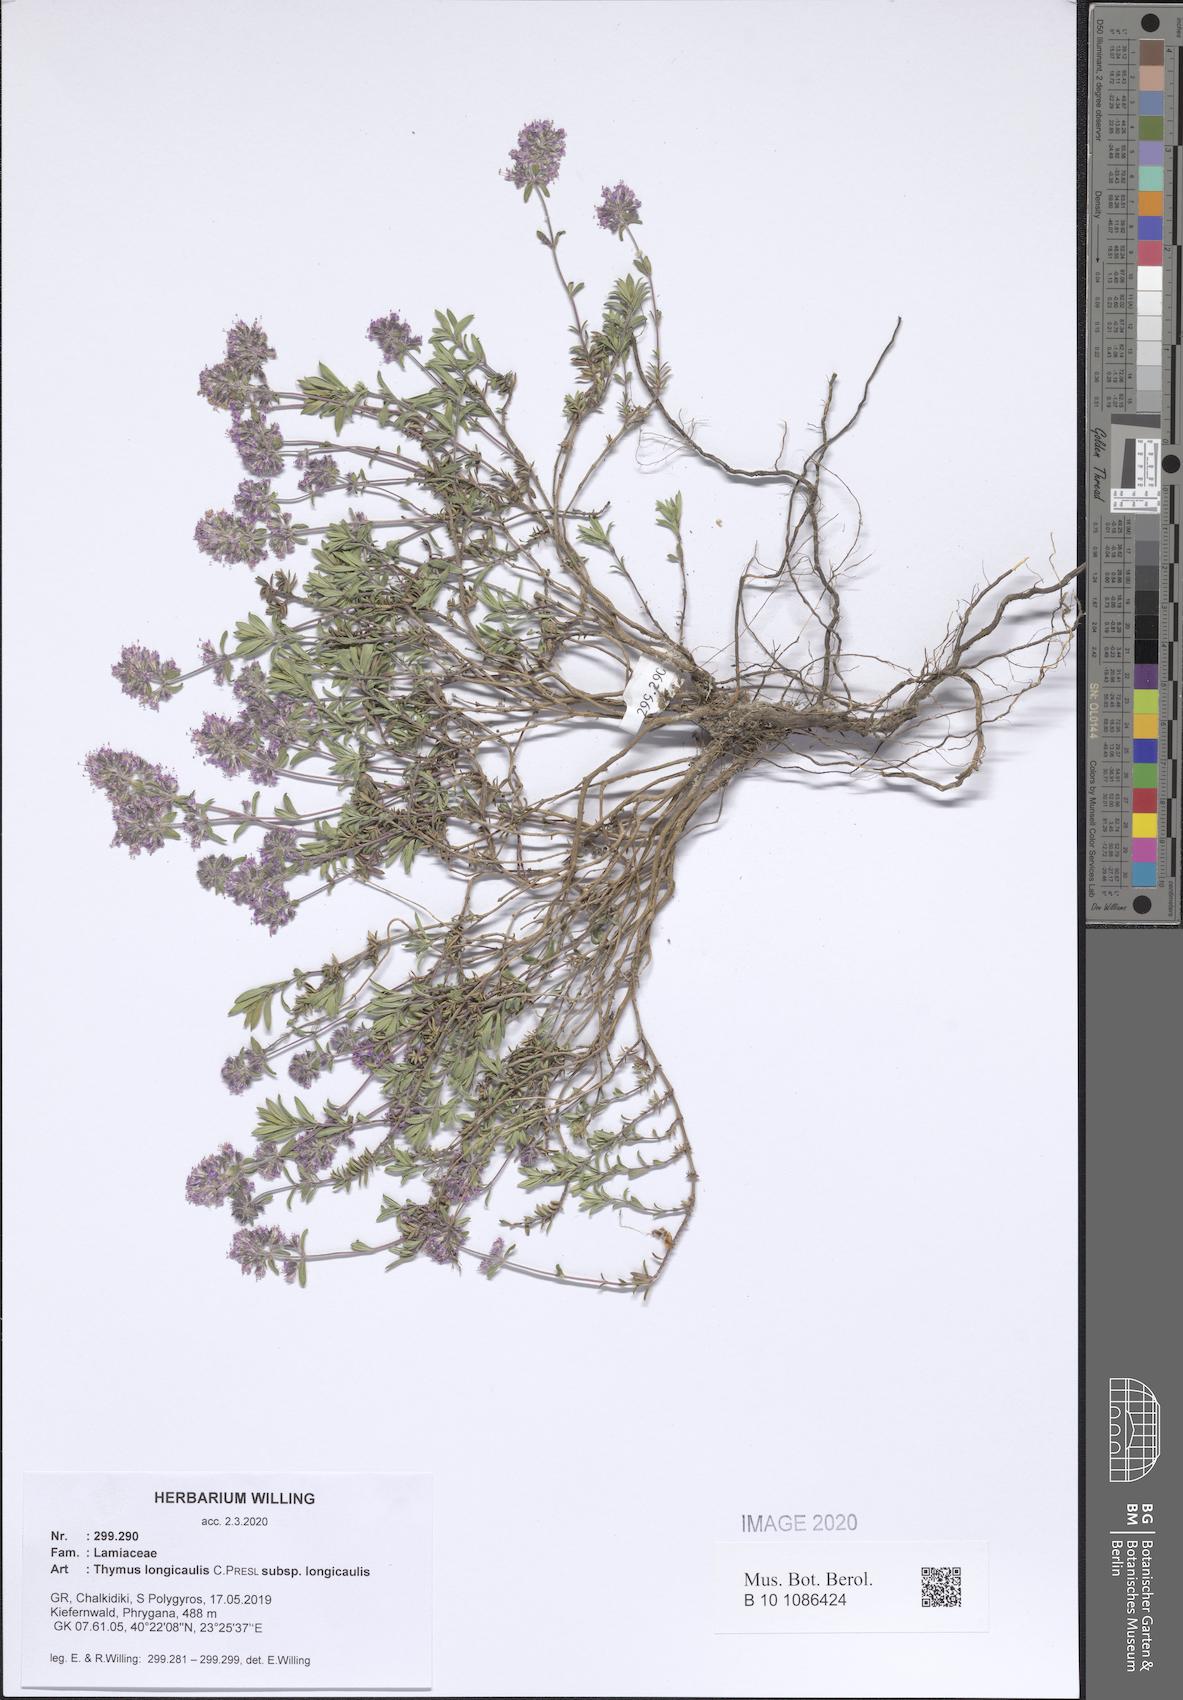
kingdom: Plantae
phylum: Tracheophyta
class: Magnoliopsida
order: Lamiales
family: Lamiaceae
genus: Thymus
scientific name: Thymus longicaulis
